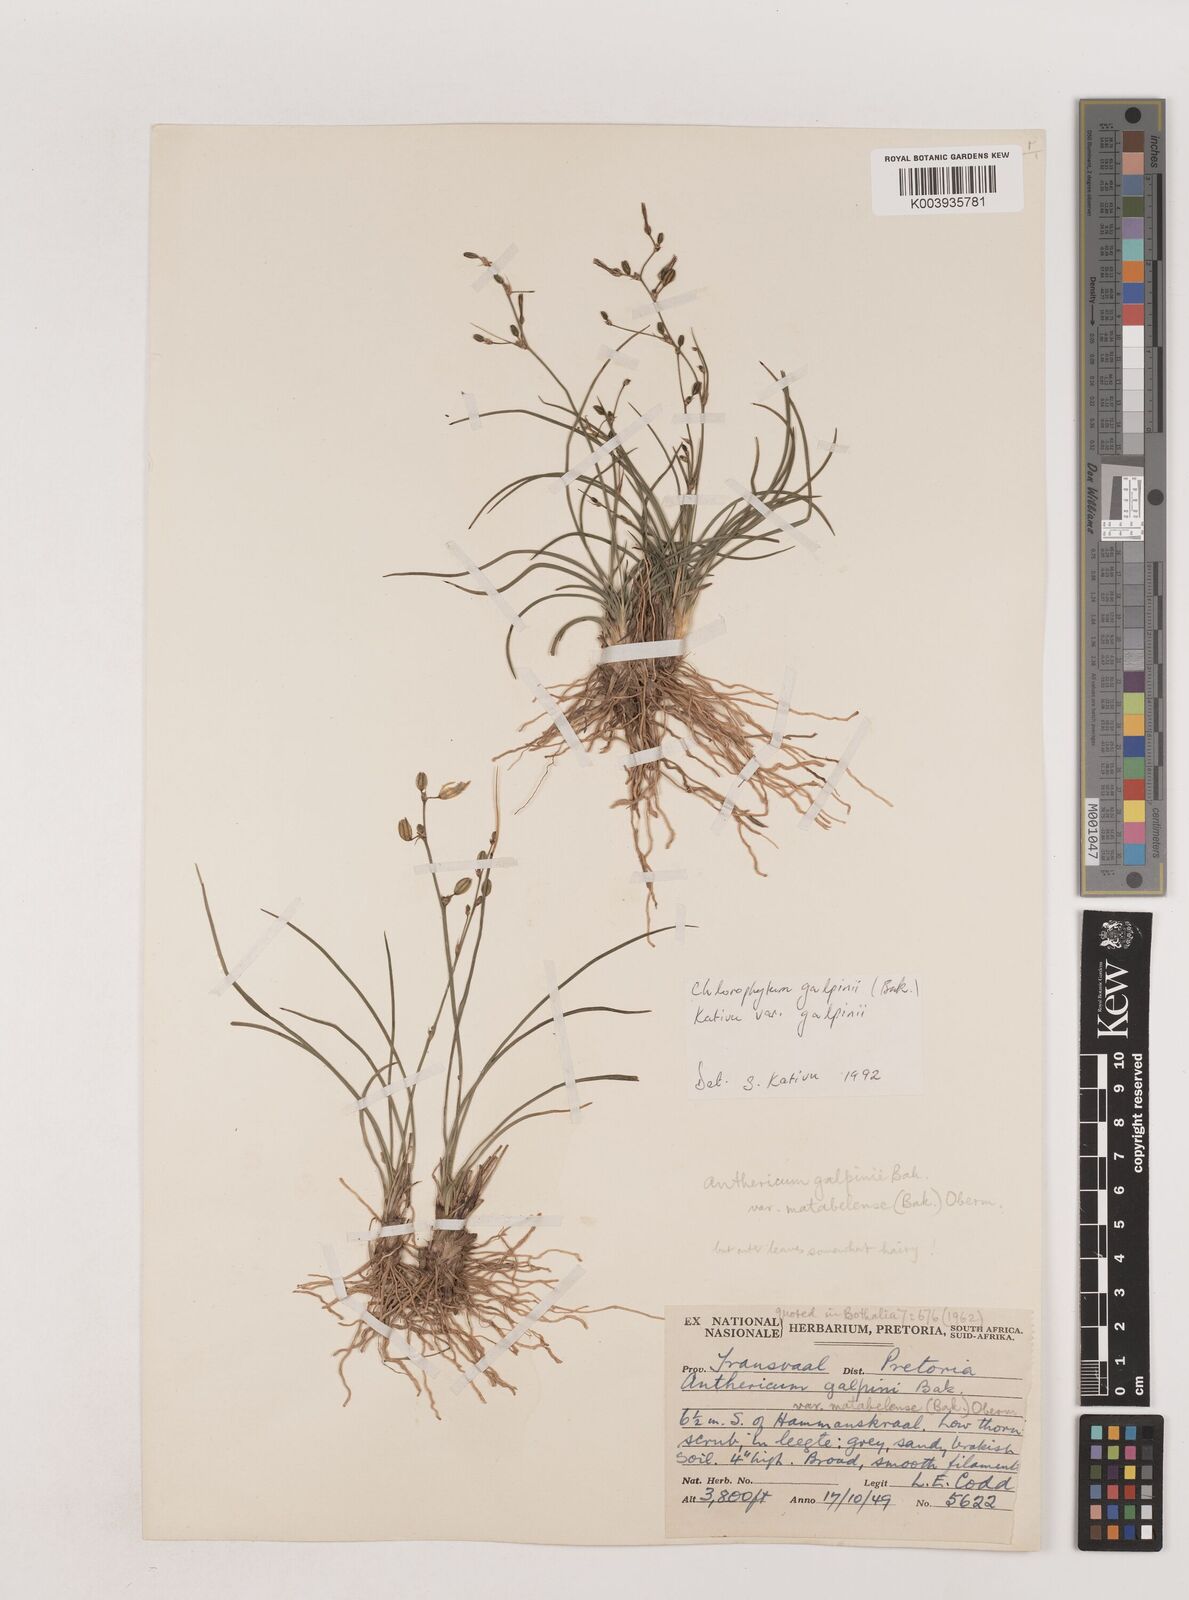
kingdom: Plantae
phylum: Tracheophyta
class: Liliopsida
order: Asparagales
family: Asparagaceae
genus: Chlorophytum
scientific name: Chlorophytum galpinii
